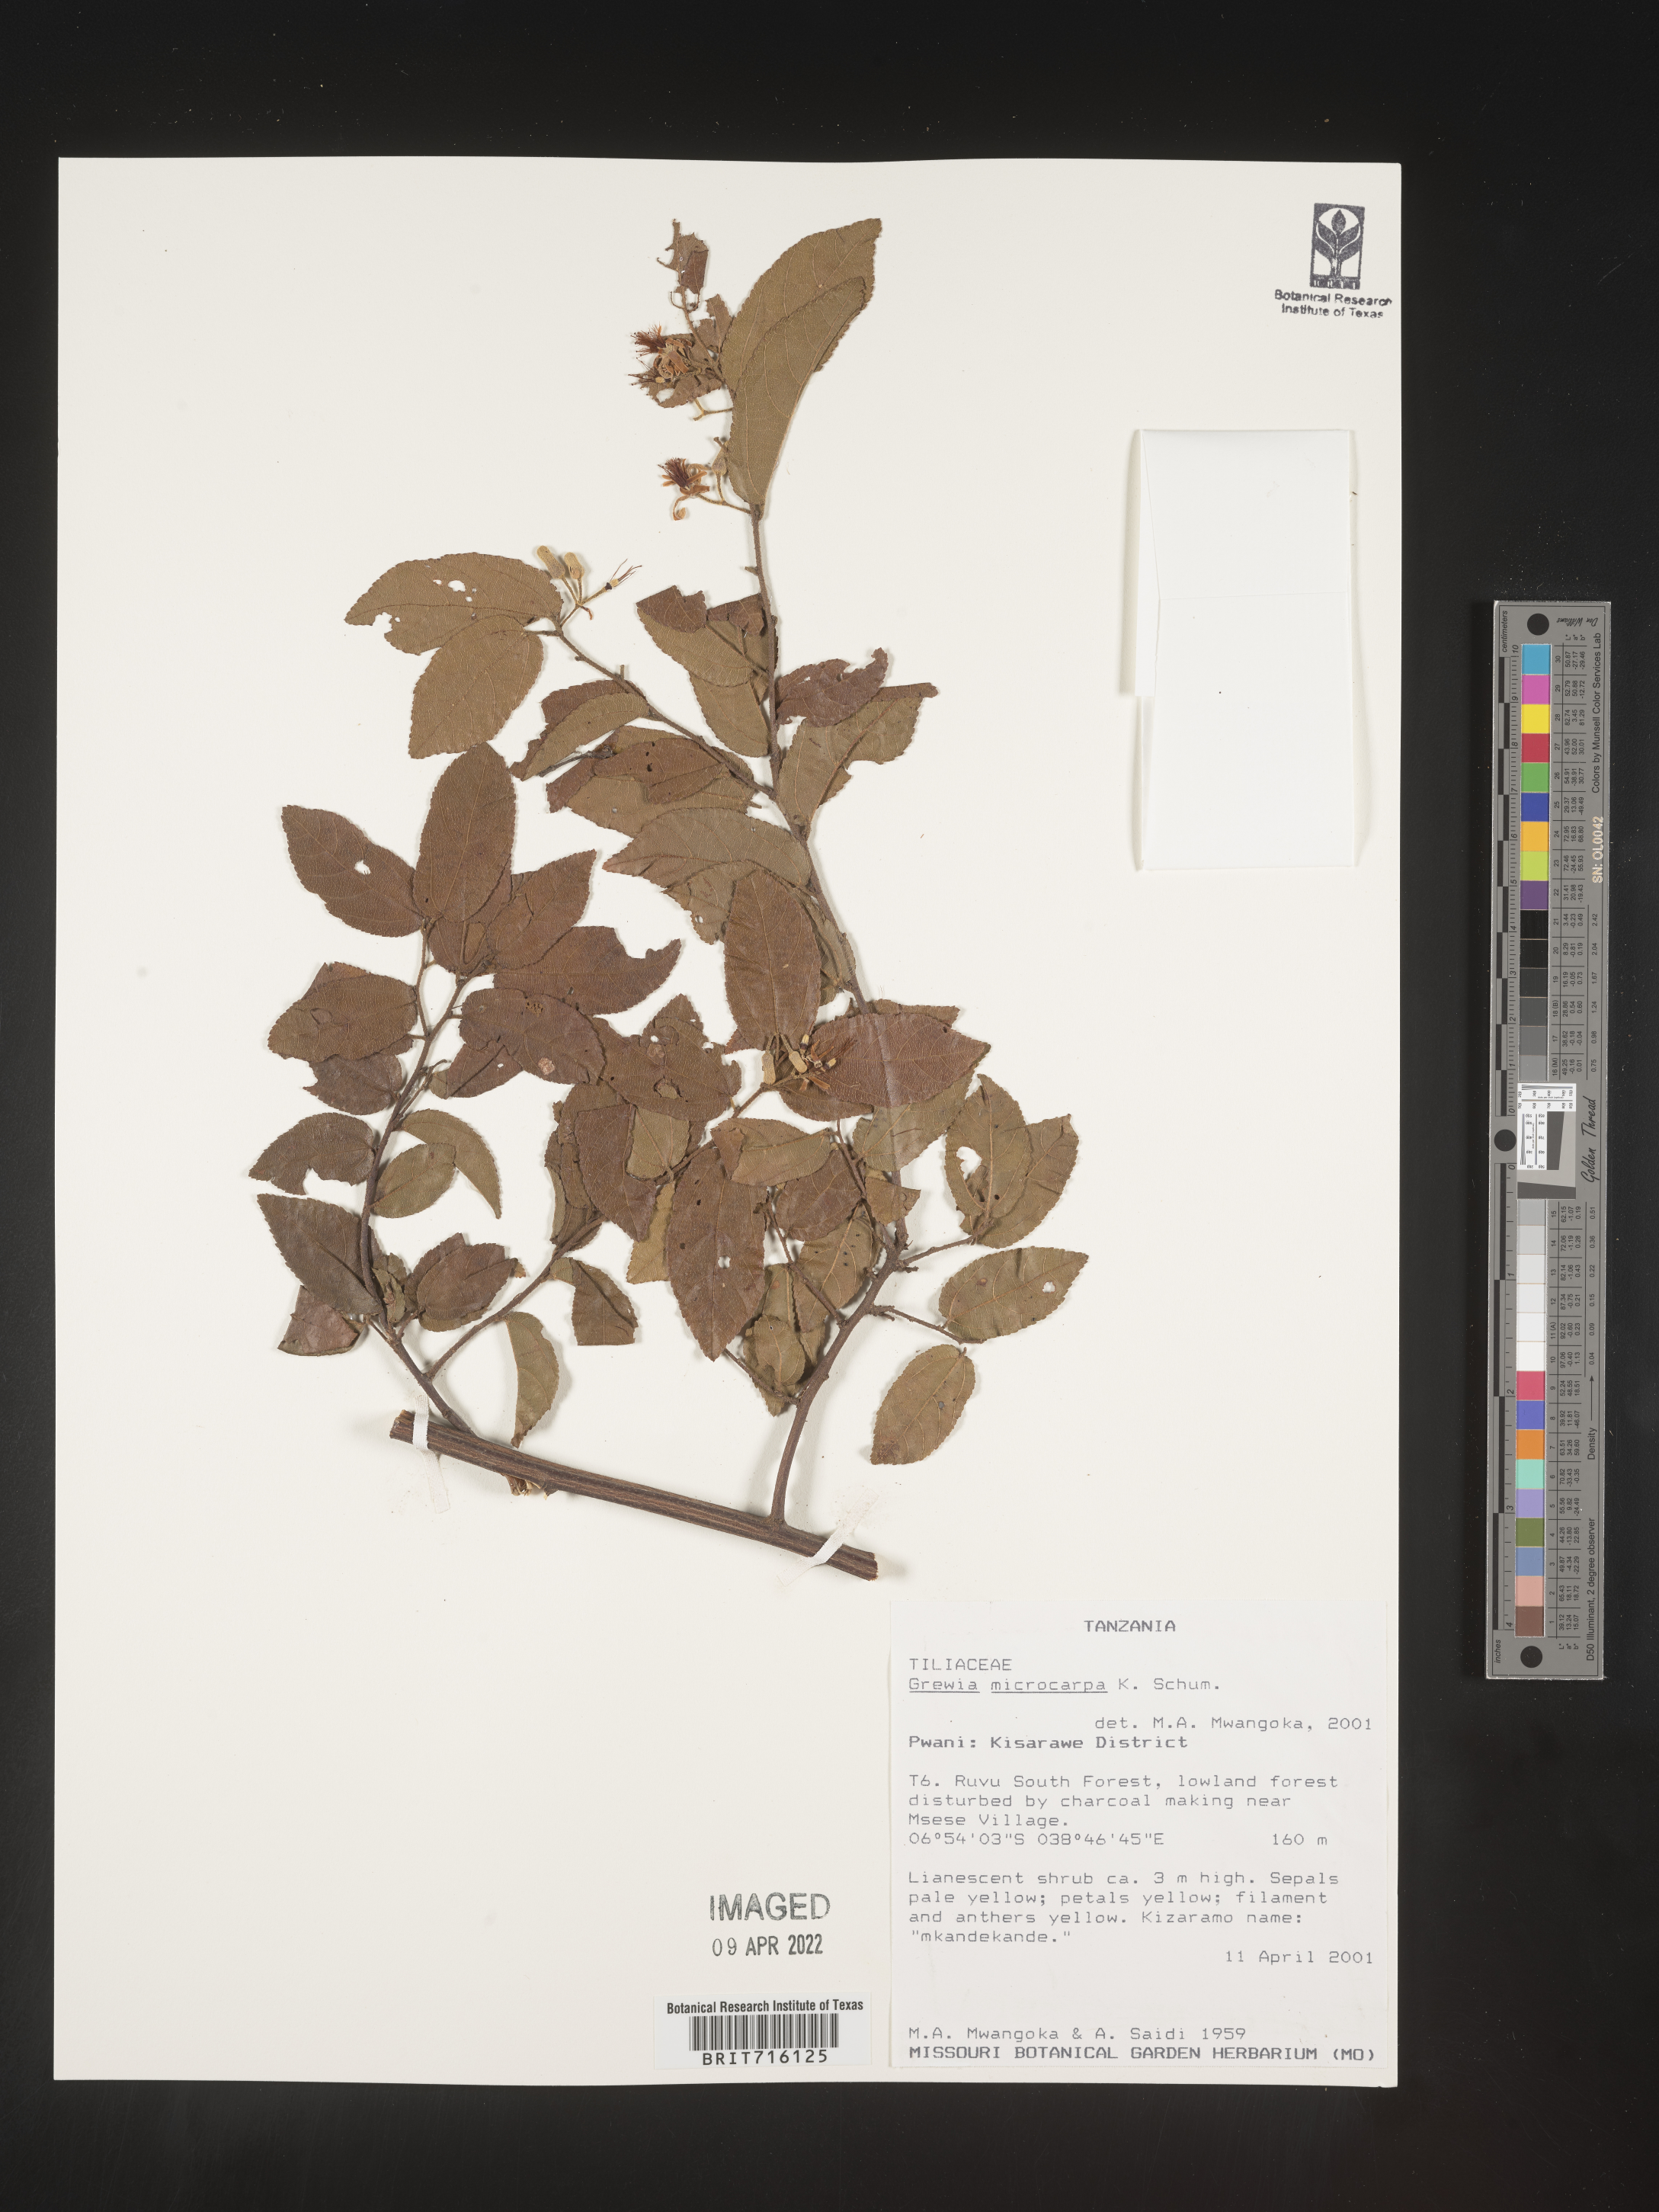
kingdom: Plantae
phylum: Tracheophyta
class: Magnoliopsida
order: Malvales
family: Malvaceae
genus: Grewia
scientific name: Grewia
